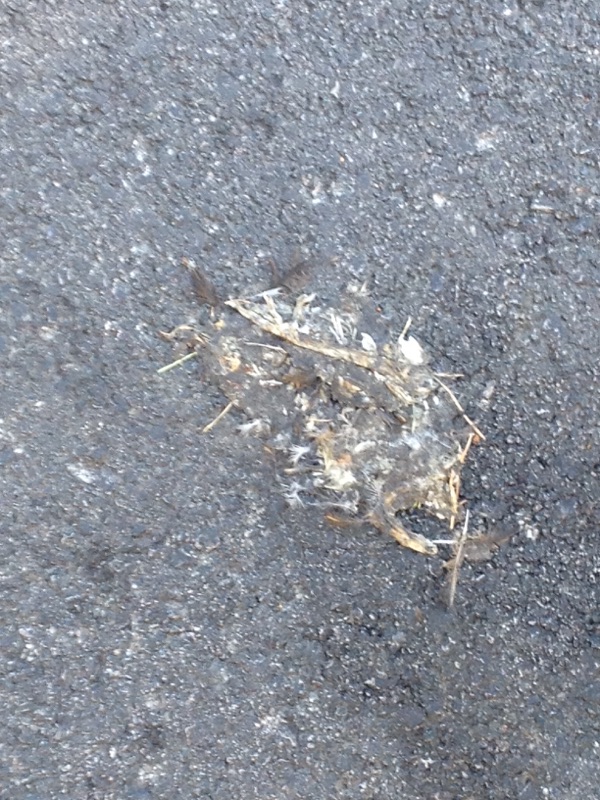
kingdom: Animalia
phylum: Chordata
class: Aves
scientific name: Aves
